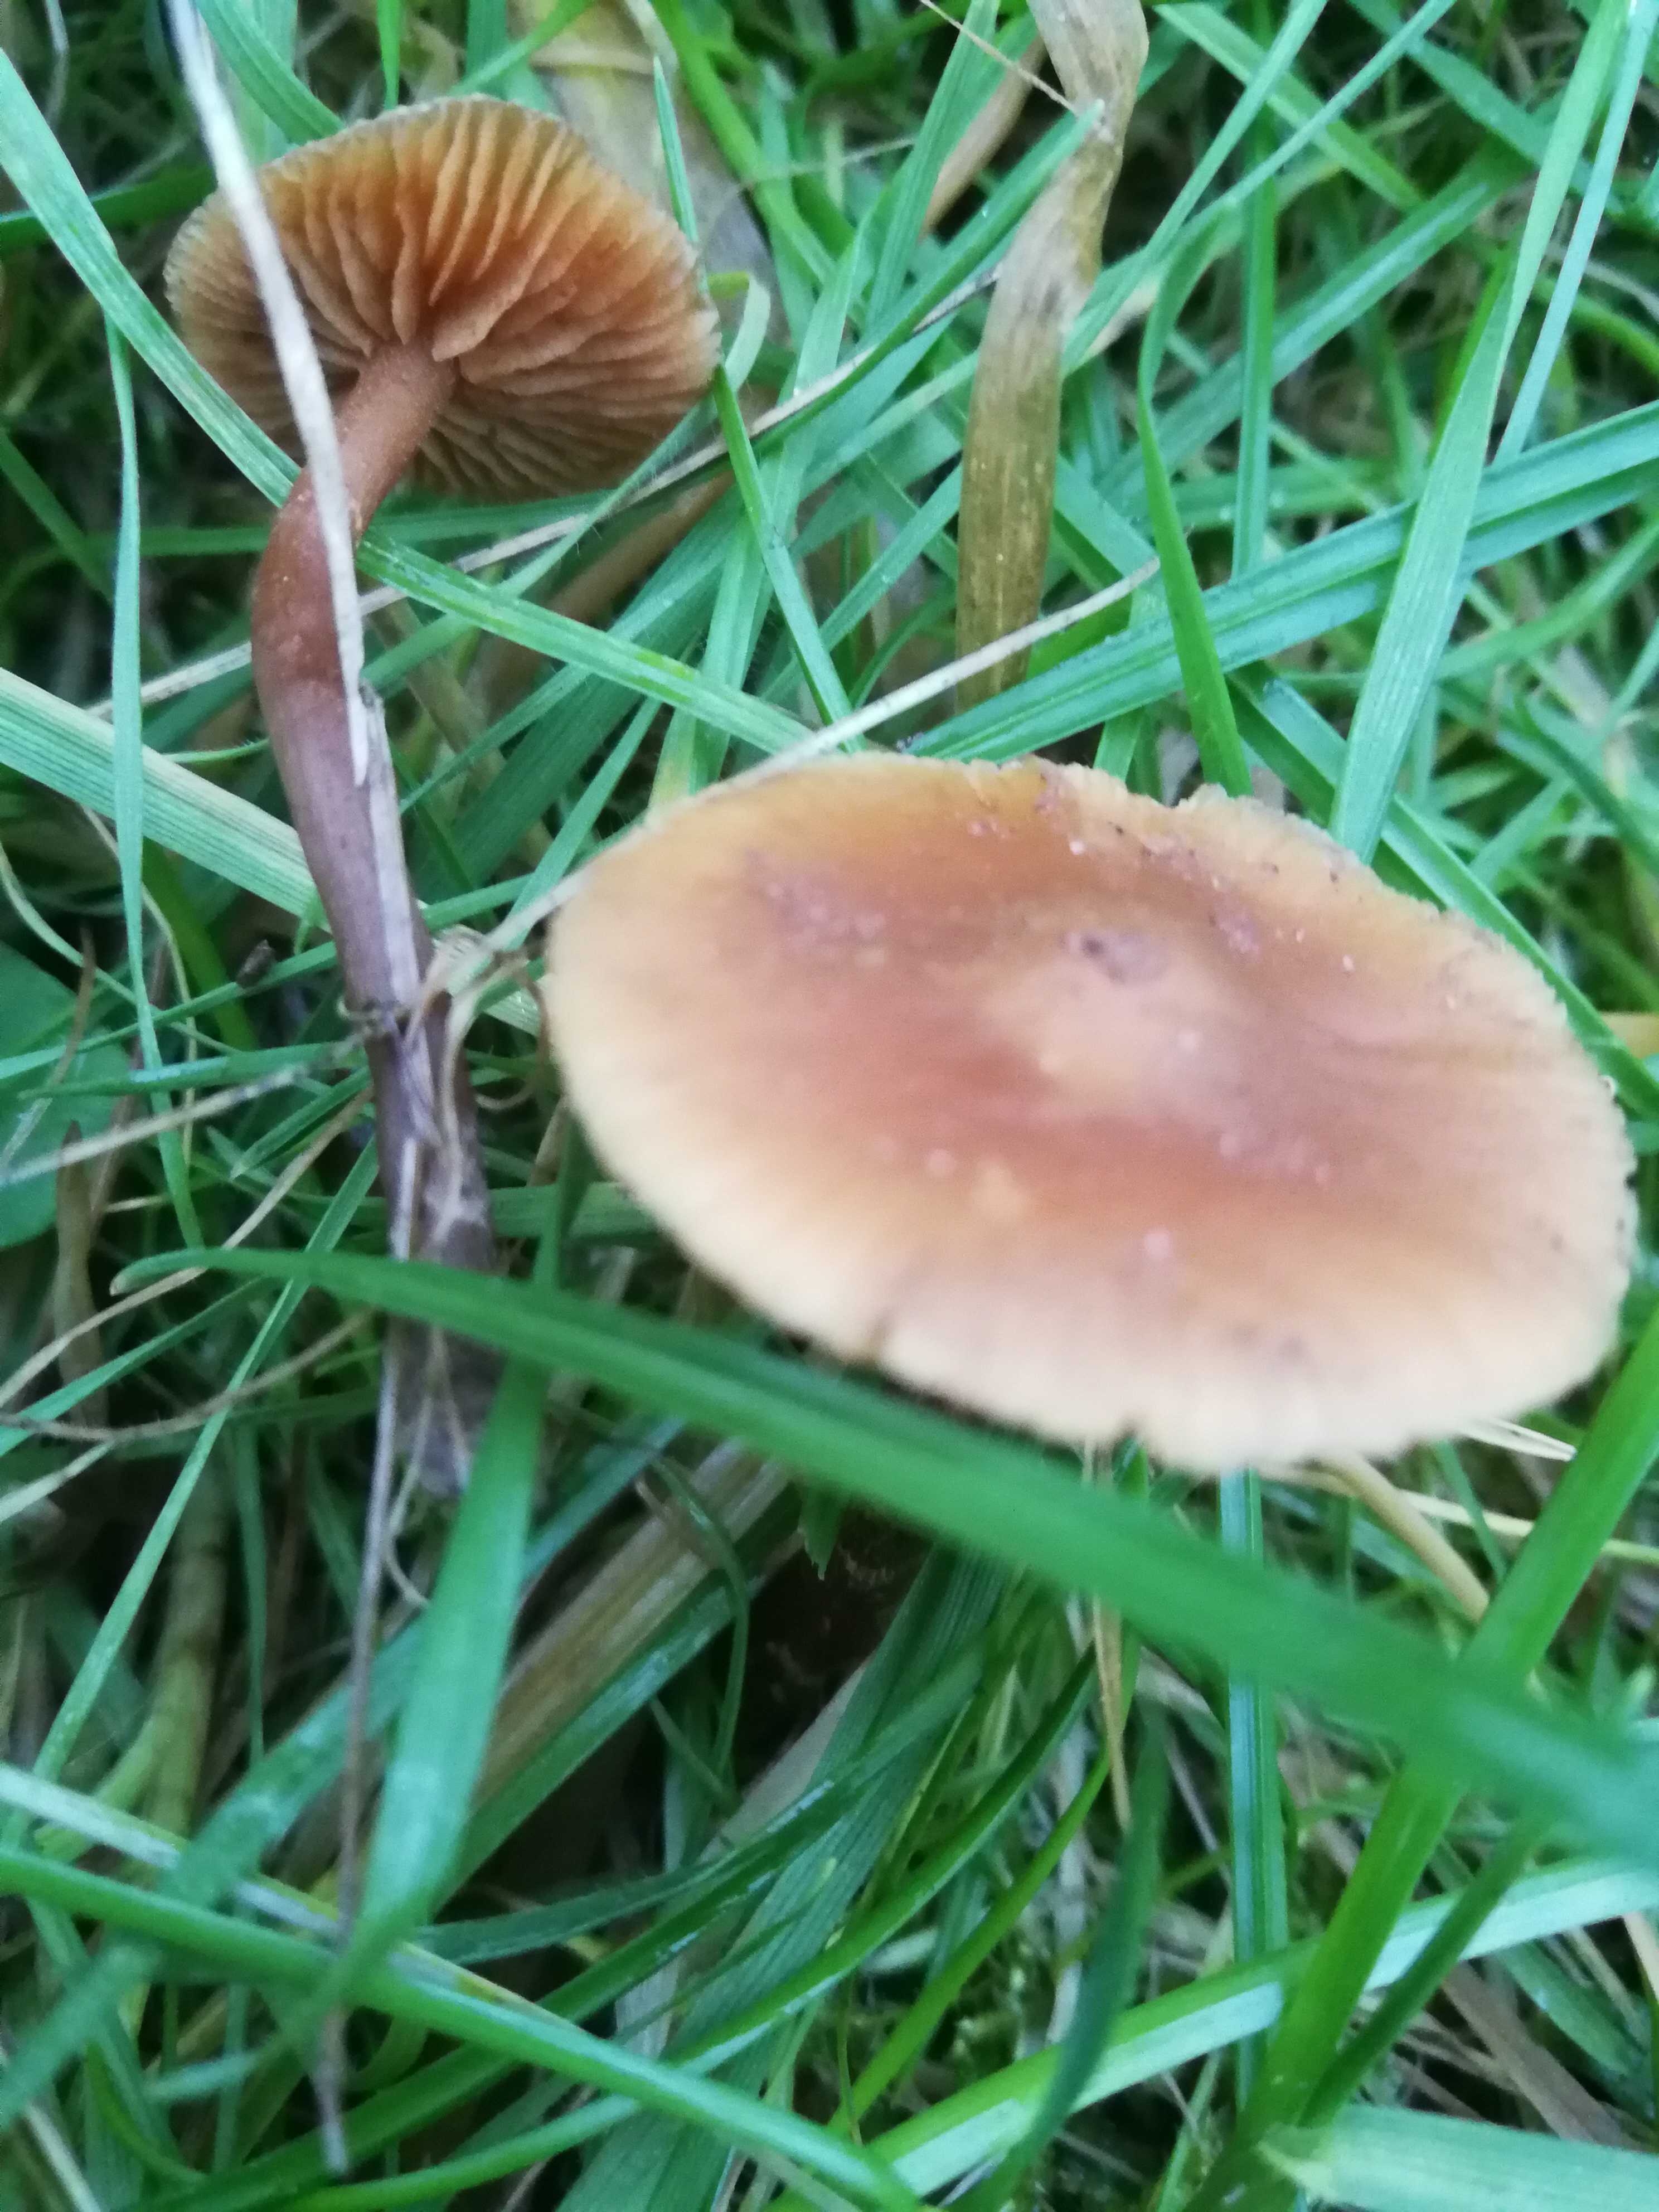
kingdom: Fungi
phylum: Basidiomycota
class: Agaricomycetes
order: Agaricales
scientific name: Agaricales
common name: champignonordenen
